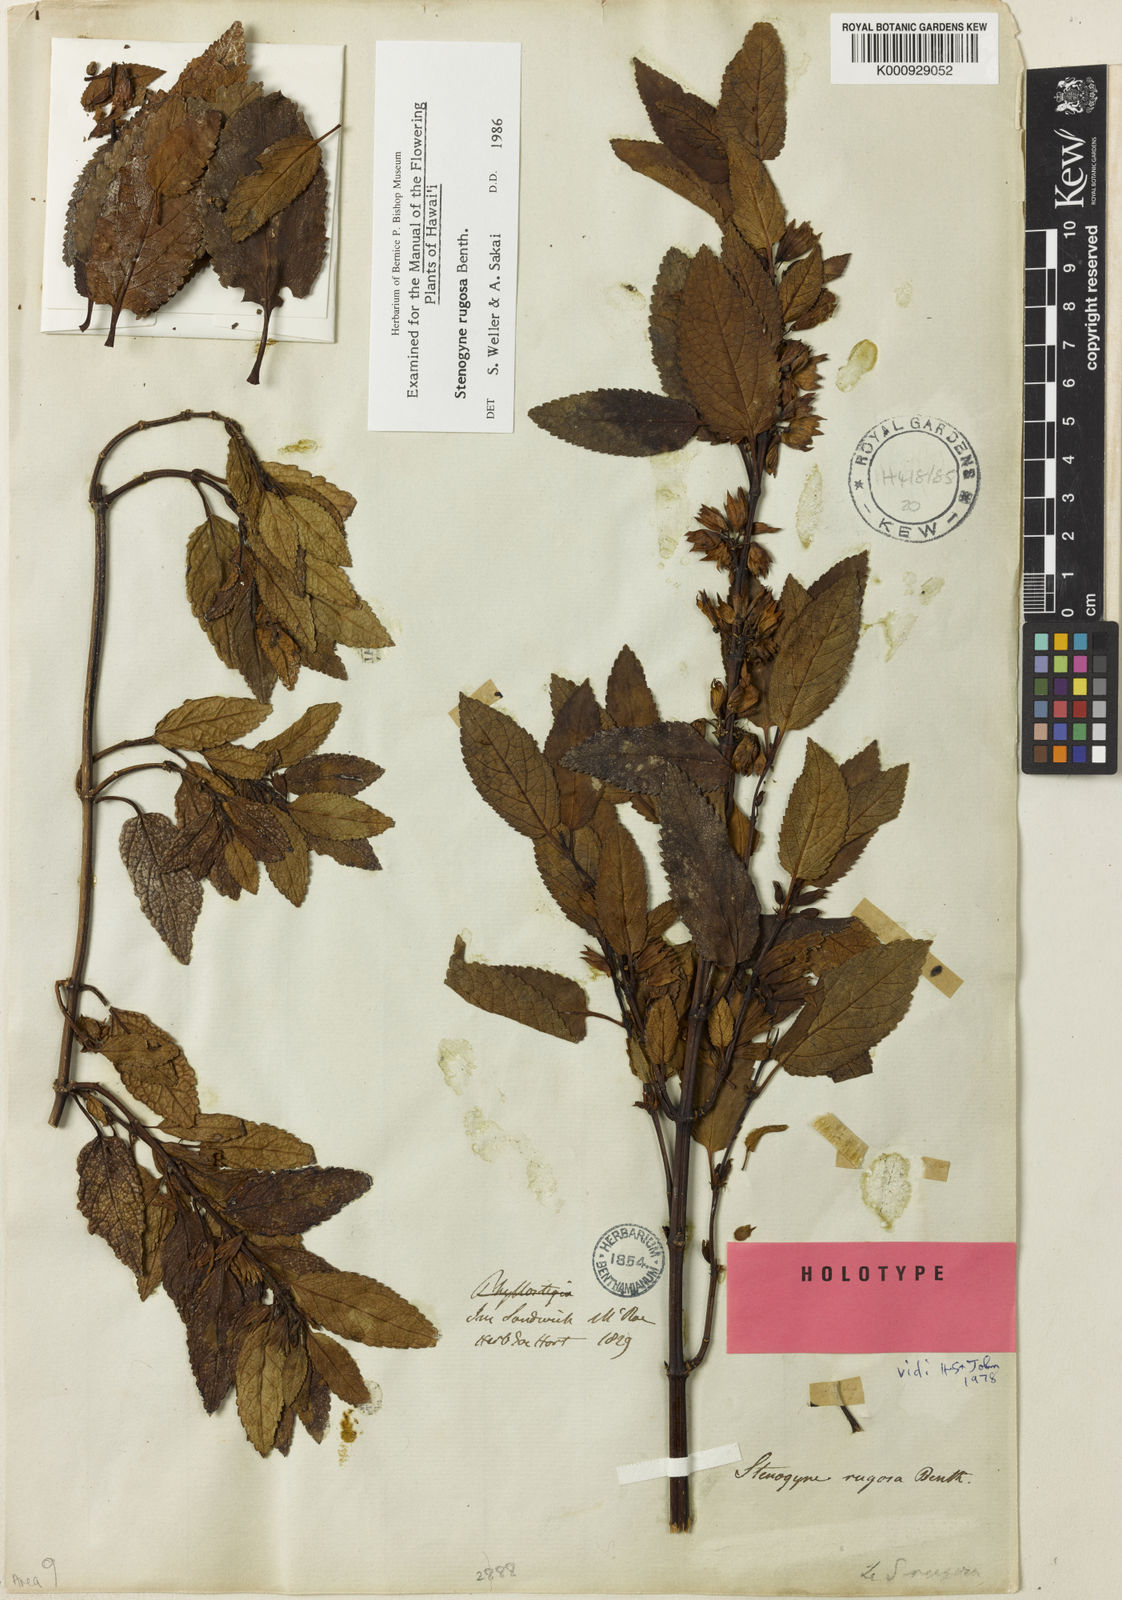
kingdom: Plantae
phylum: Tracheophyta
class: Magnoliopsida
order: Lamiales
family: Lamiaceae
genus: Stenogyne
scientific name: Stenogyne rugosa
